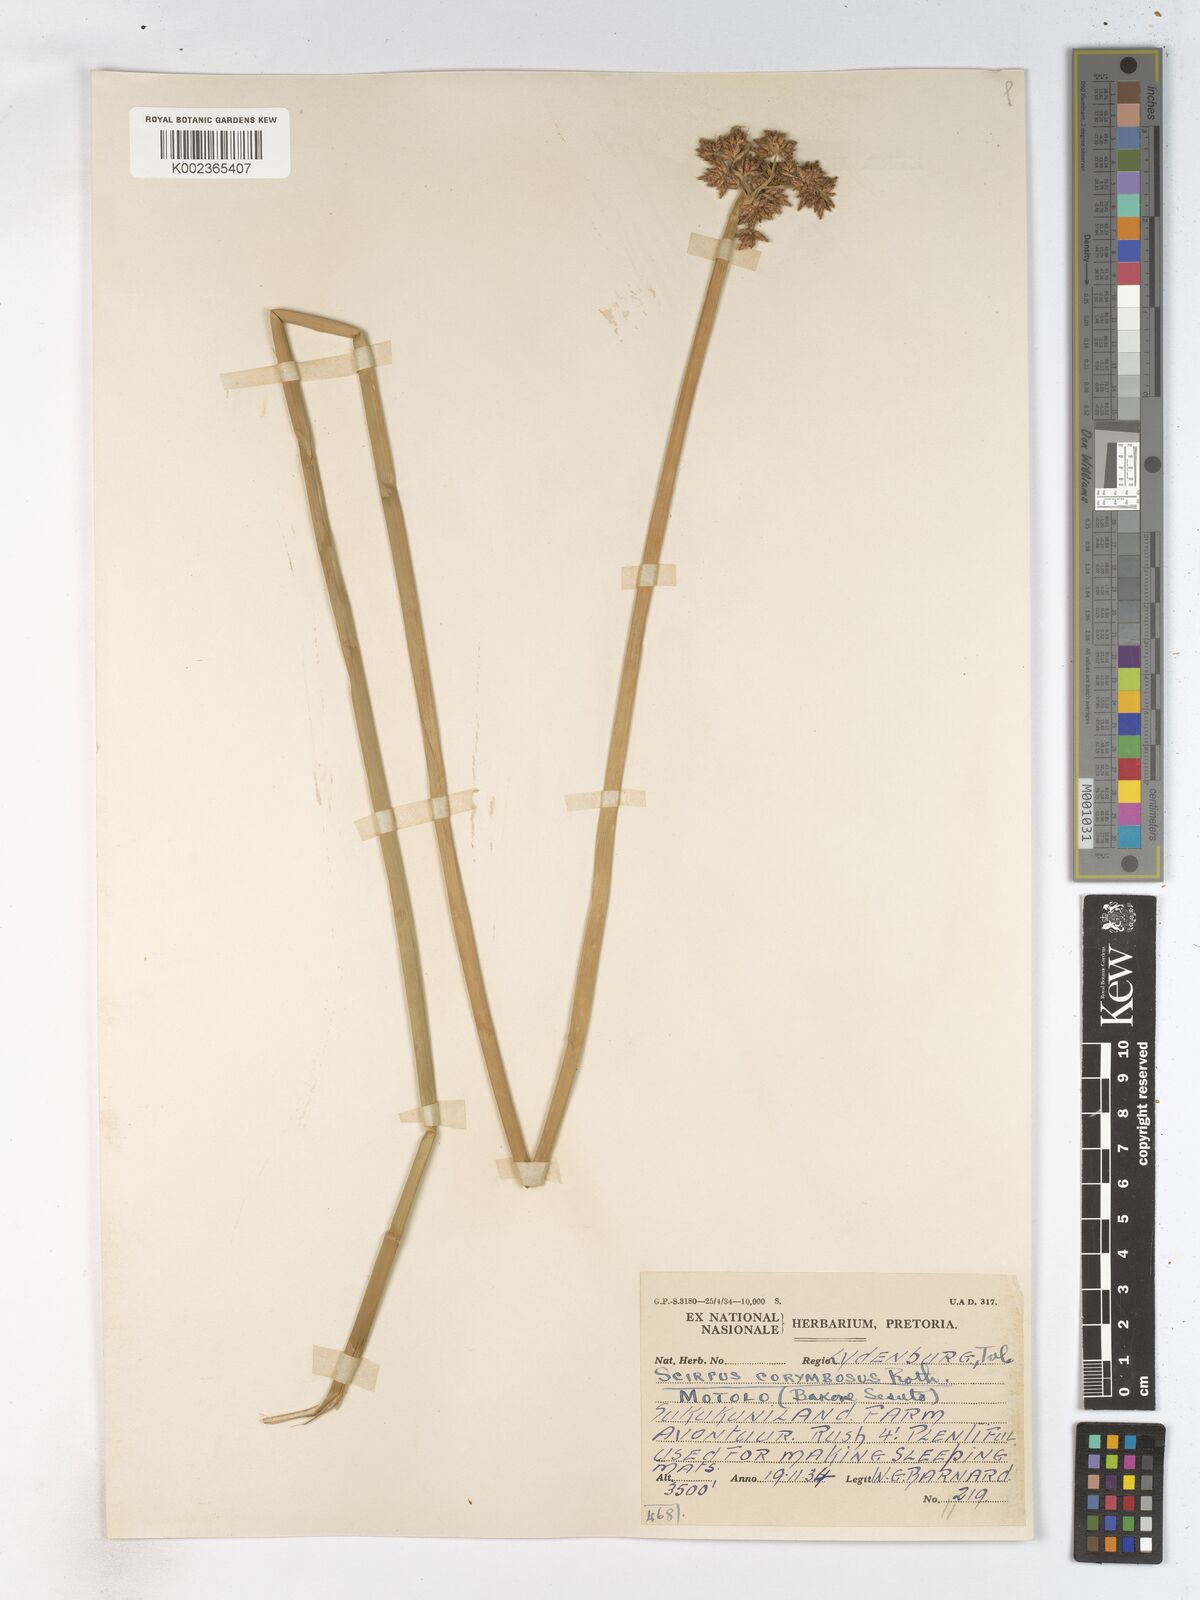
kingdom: Plantae
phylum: Tracheophyta
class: Liliopsida
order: Poales
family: Cyperaceae
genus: Schoenoplectiella
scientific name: Schoenoplectiella brachyceras
